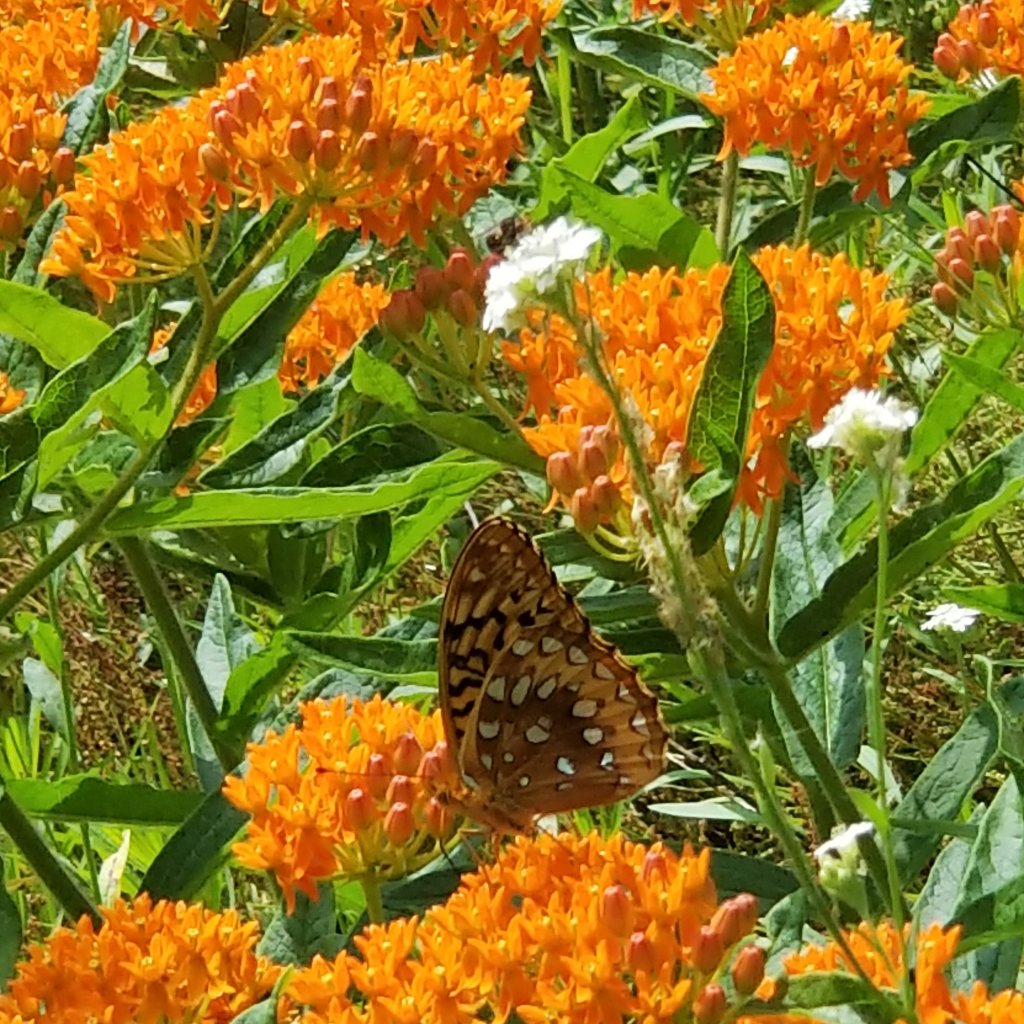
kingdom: Animalia
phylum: Arthropoda
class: Insecta
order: Lepidoptera
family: Nymphalidae
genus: Speyeria
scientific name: Speyeria cybele
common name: Great Spangled Fritillary
